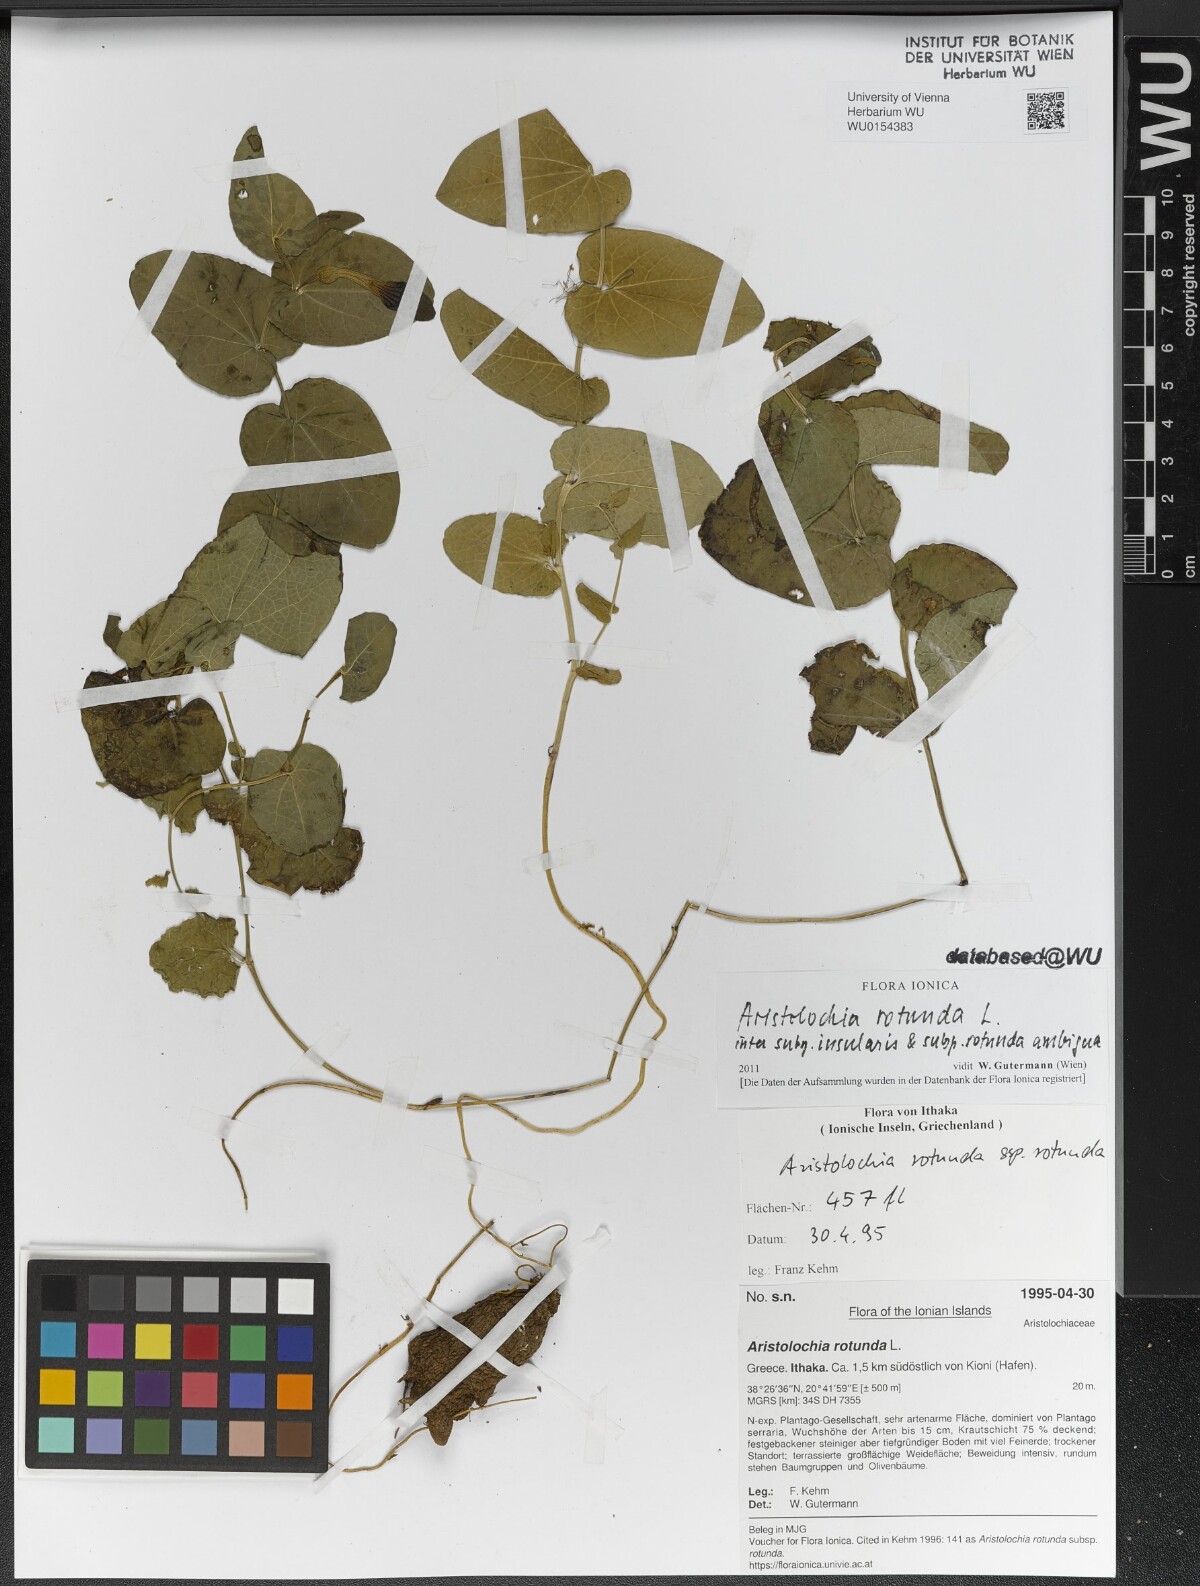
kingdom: Plantae
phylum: Tracheophyta
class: Magnoliopsida
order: Piperales
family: Aristolochiaceae
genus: Aristolochia
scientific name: Aristolochia rotunda
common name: Smearwort
